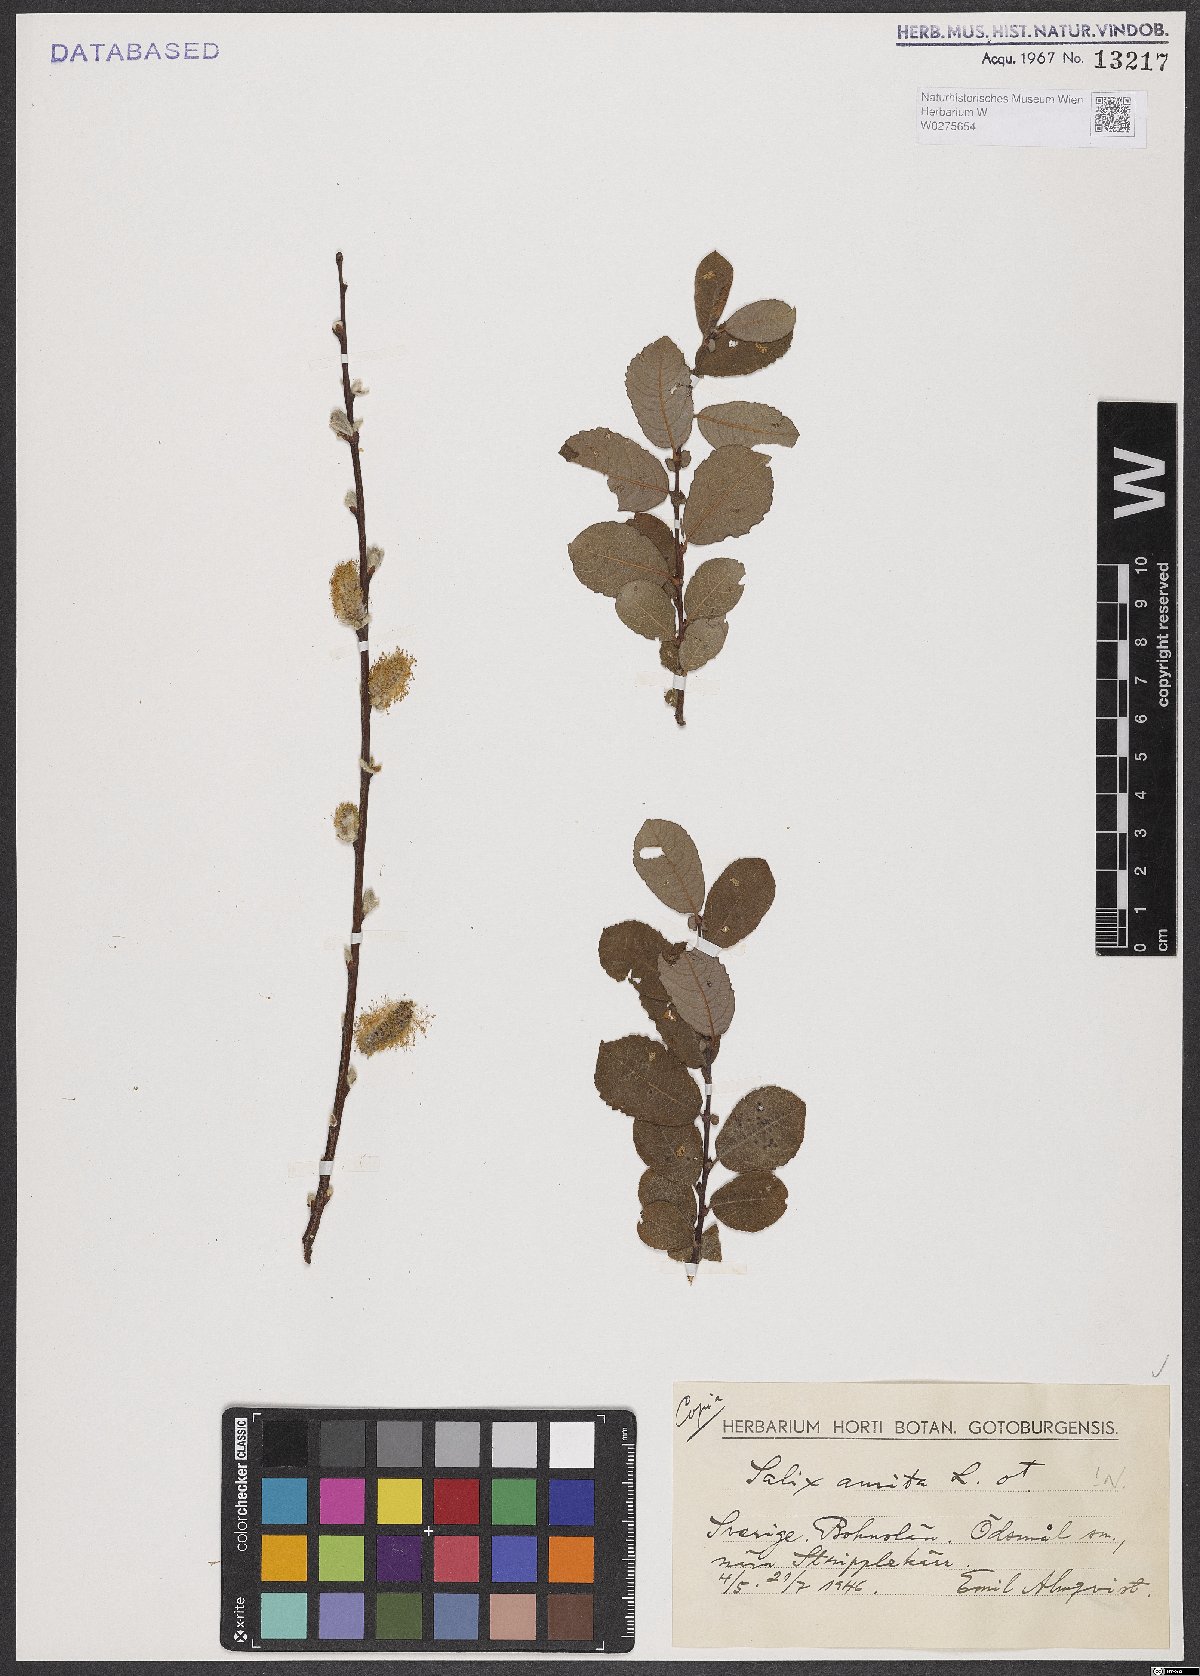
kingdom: Plantae
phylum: Tracheophyta
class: Magnoliopsida
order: Malpighiales
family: Salicaceae
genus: Salix
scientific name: Salix aurita
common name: Eared willow
